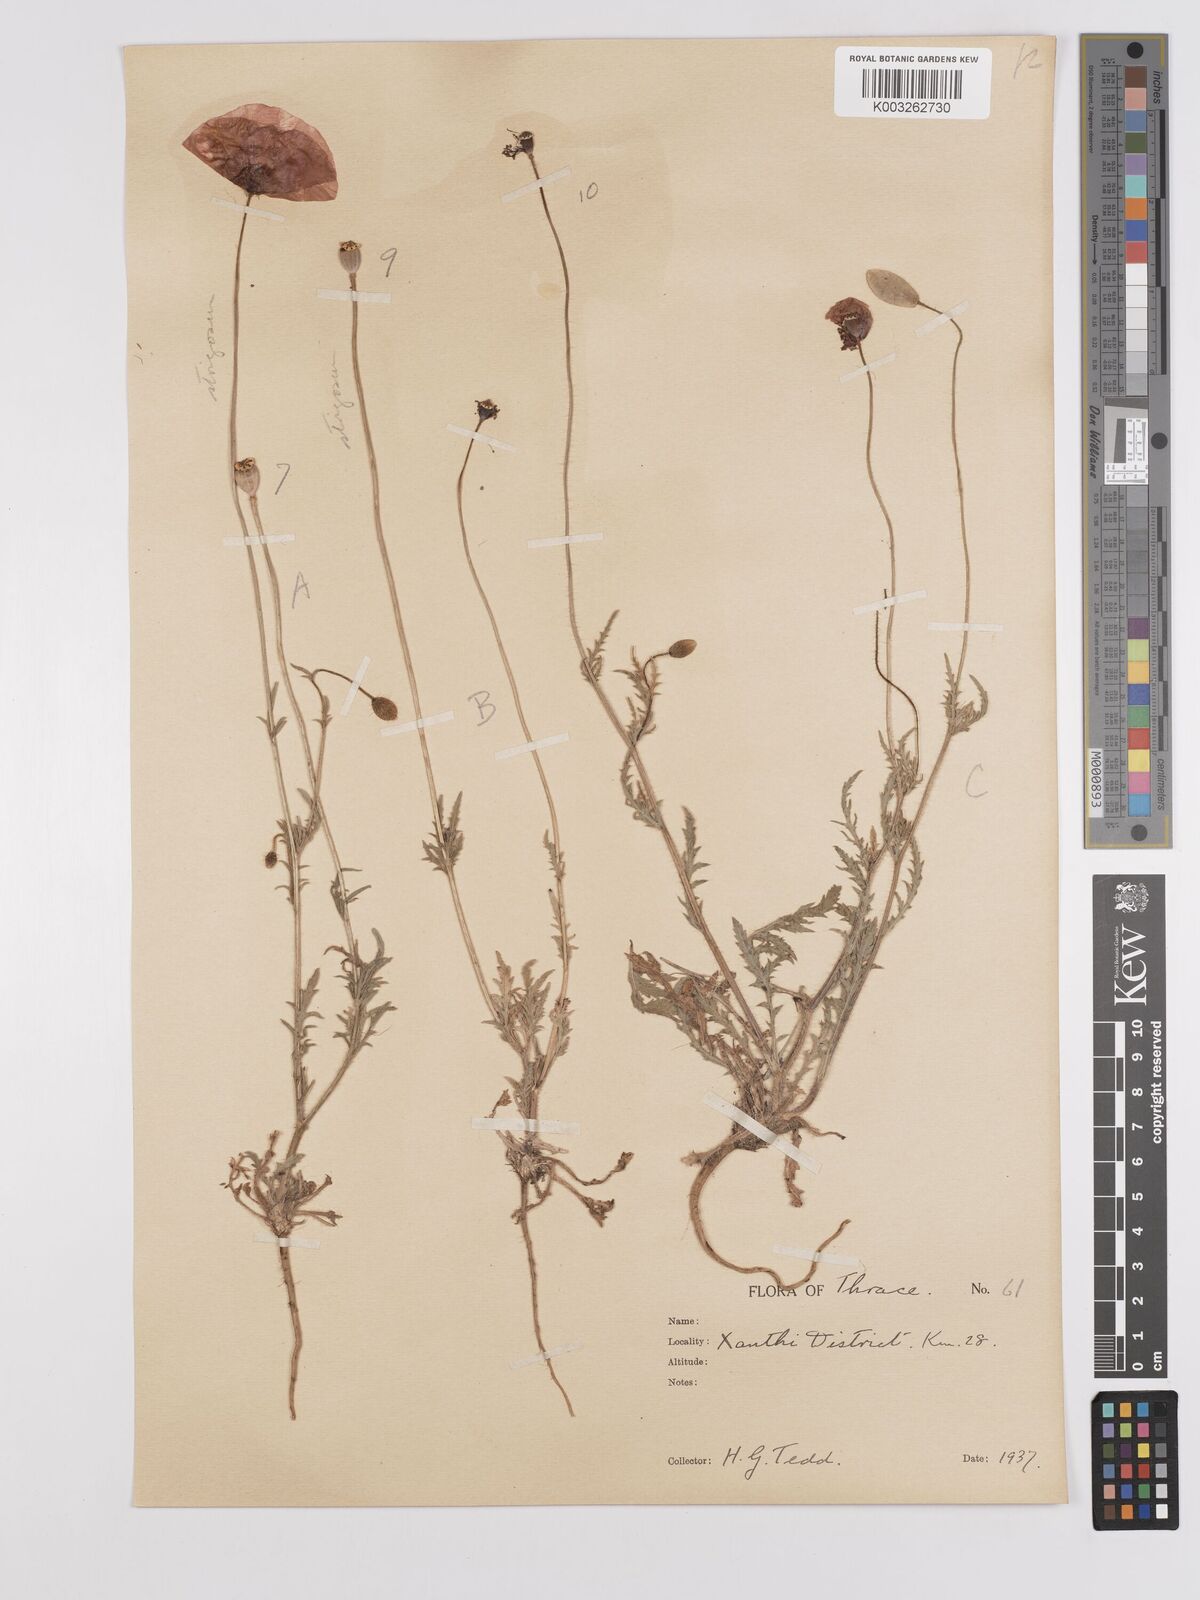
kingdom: Plantae
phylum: Tracheophyta
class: Magnoliopsida
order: Ranunculales
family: Papaveraceae
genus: Papaver
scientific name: Papaver
